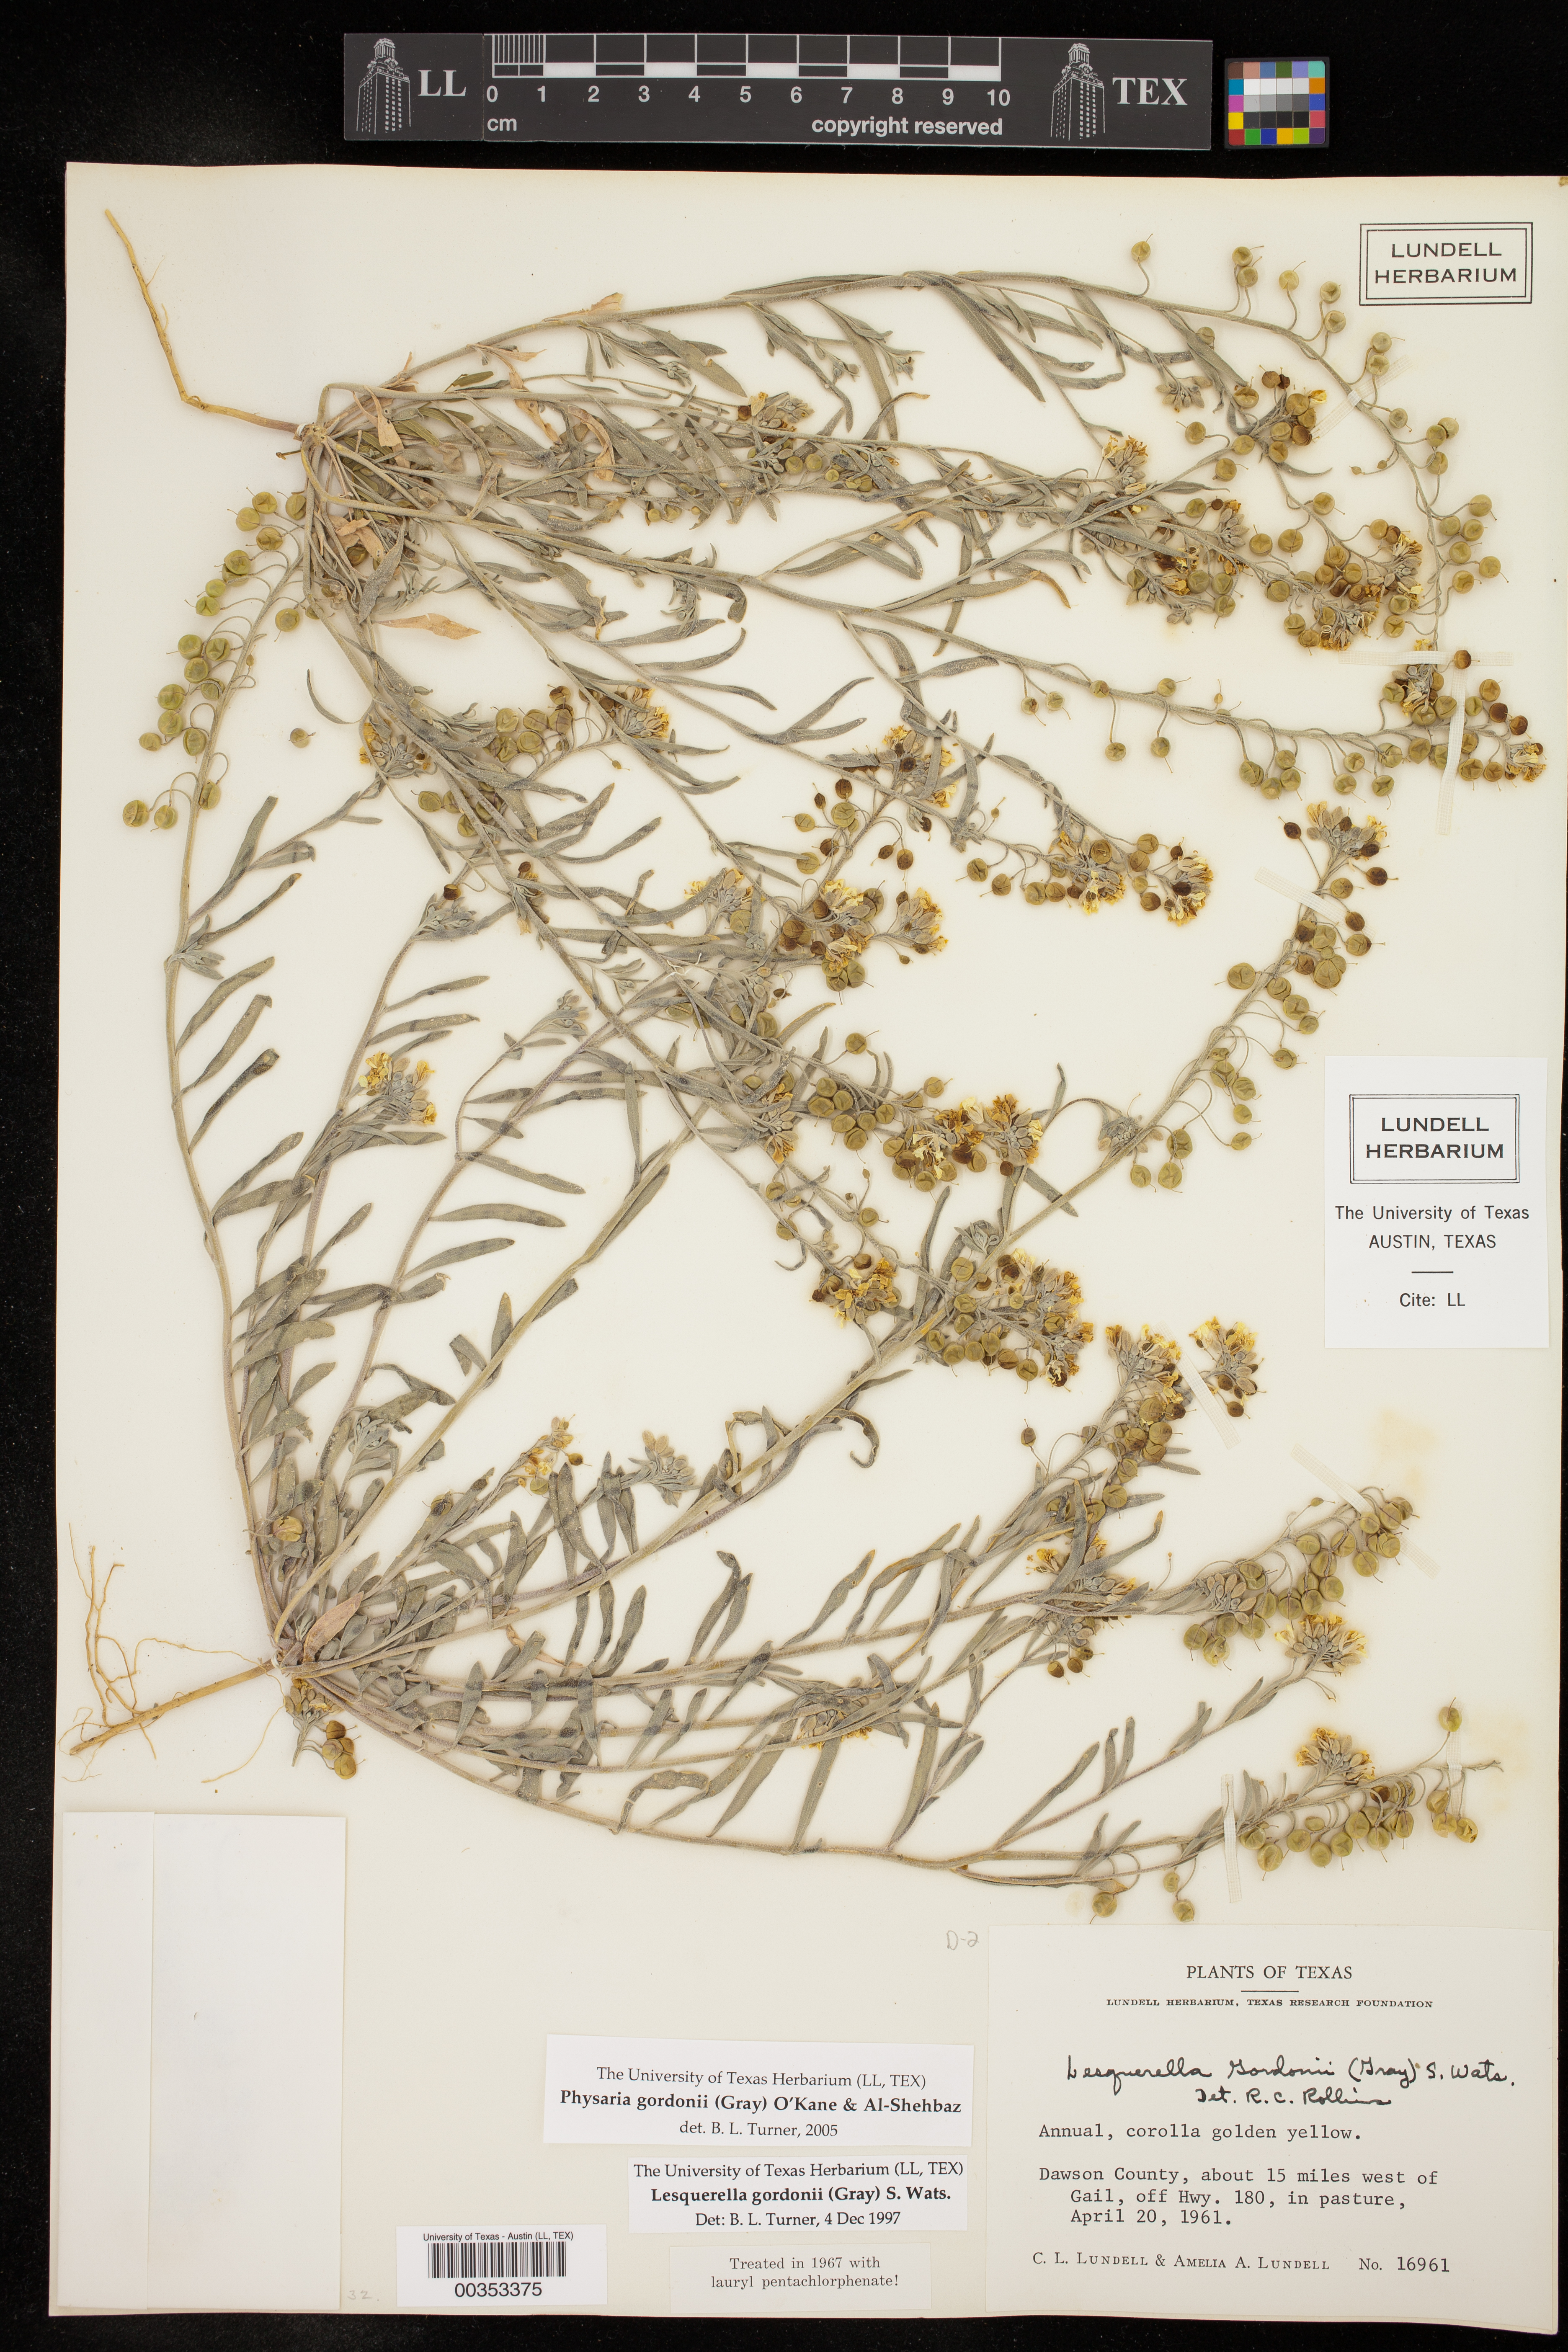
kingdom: Plantae
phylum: Tracheophyta
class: Magnoliopsida
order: Brassicales
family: Brassicaceae
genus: Physaria
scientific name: Physaria gordonii
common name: Gordon's bladderpod
